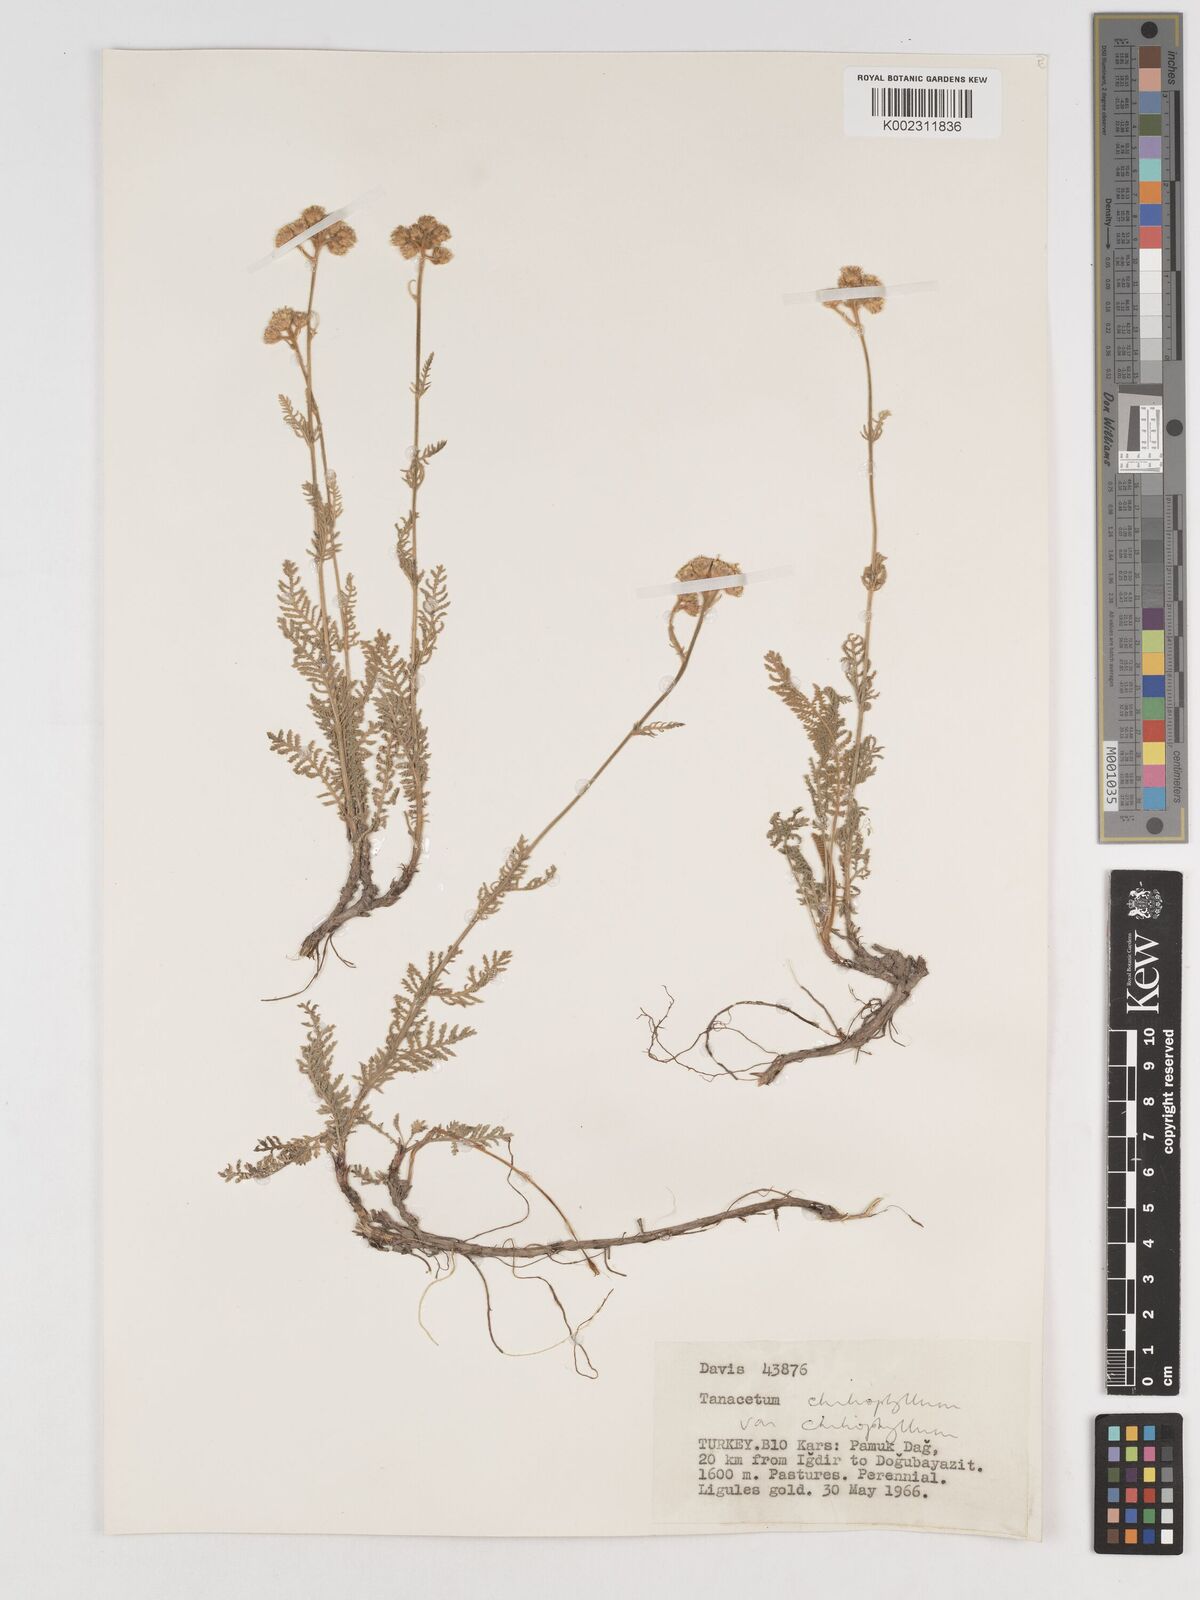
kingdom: Plantae
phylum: Tracheophyta
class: Magnoliopsida
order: Asterales
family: Asteraceae
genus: Tanacetum
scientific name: Tanacetum aureum
